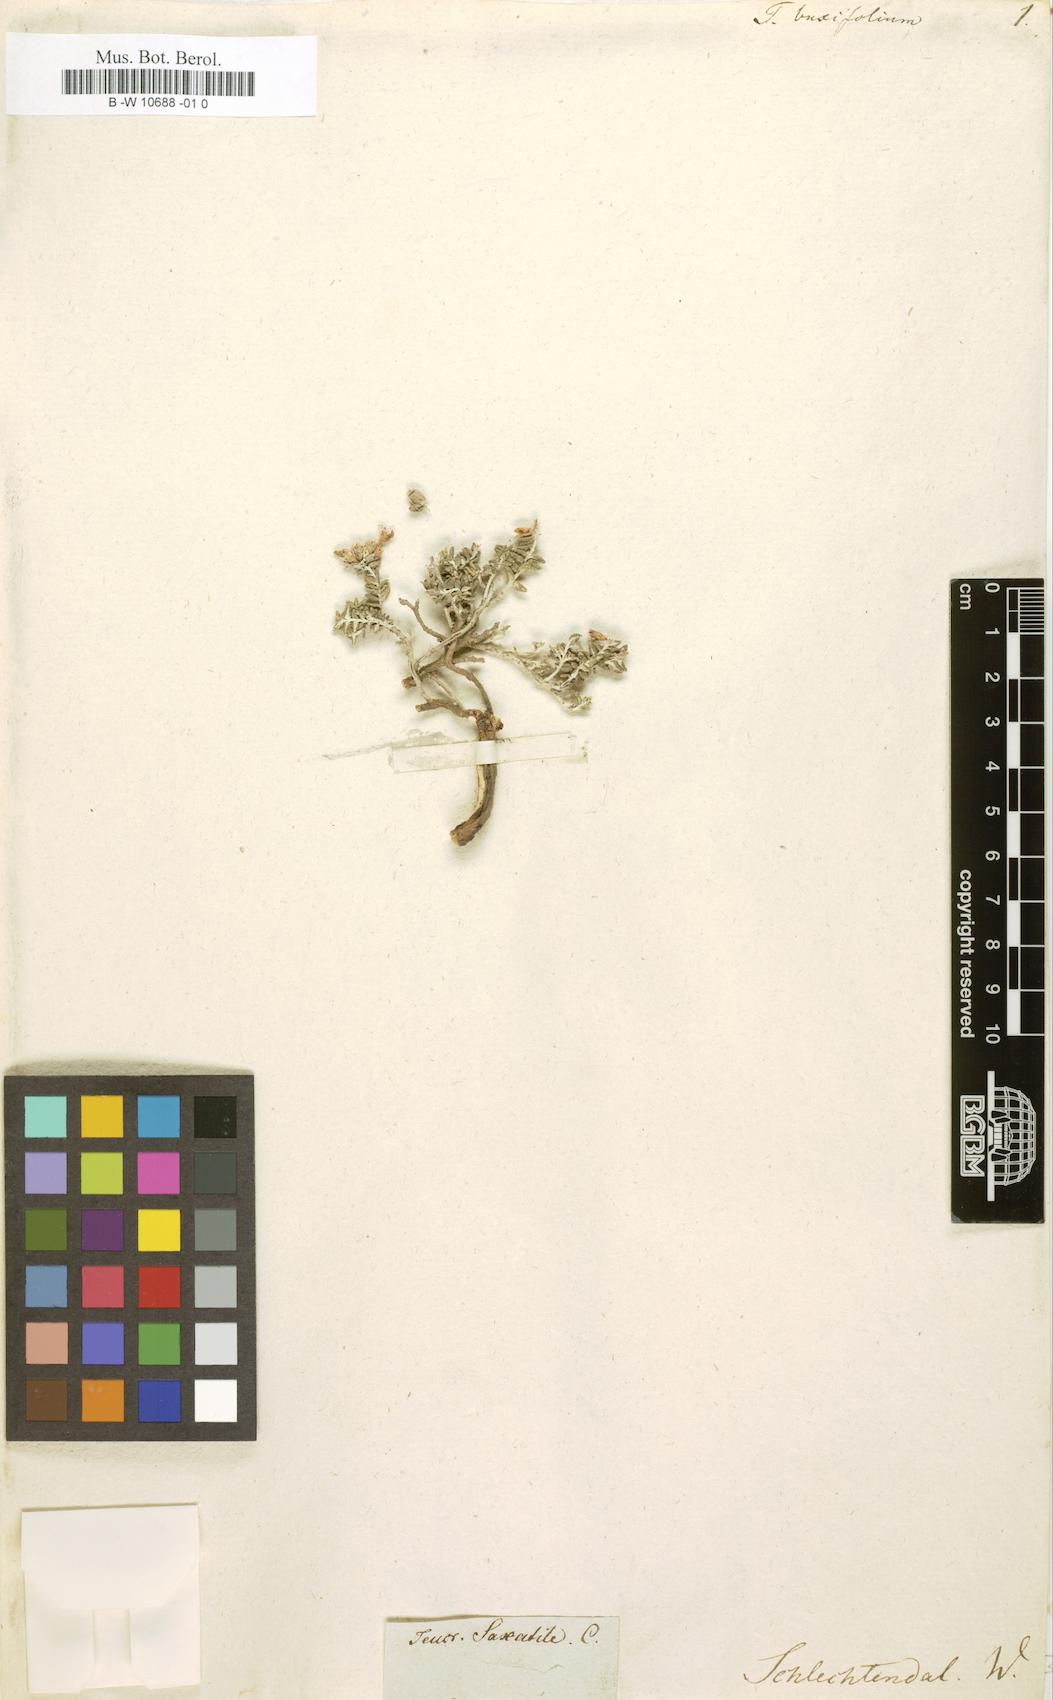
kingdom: Plantae
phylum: Tracheophyta
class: Magnoliopsida
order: Lamiales
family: Lamiaceae
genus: Teucrium
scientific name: Teucrium buxifolium
